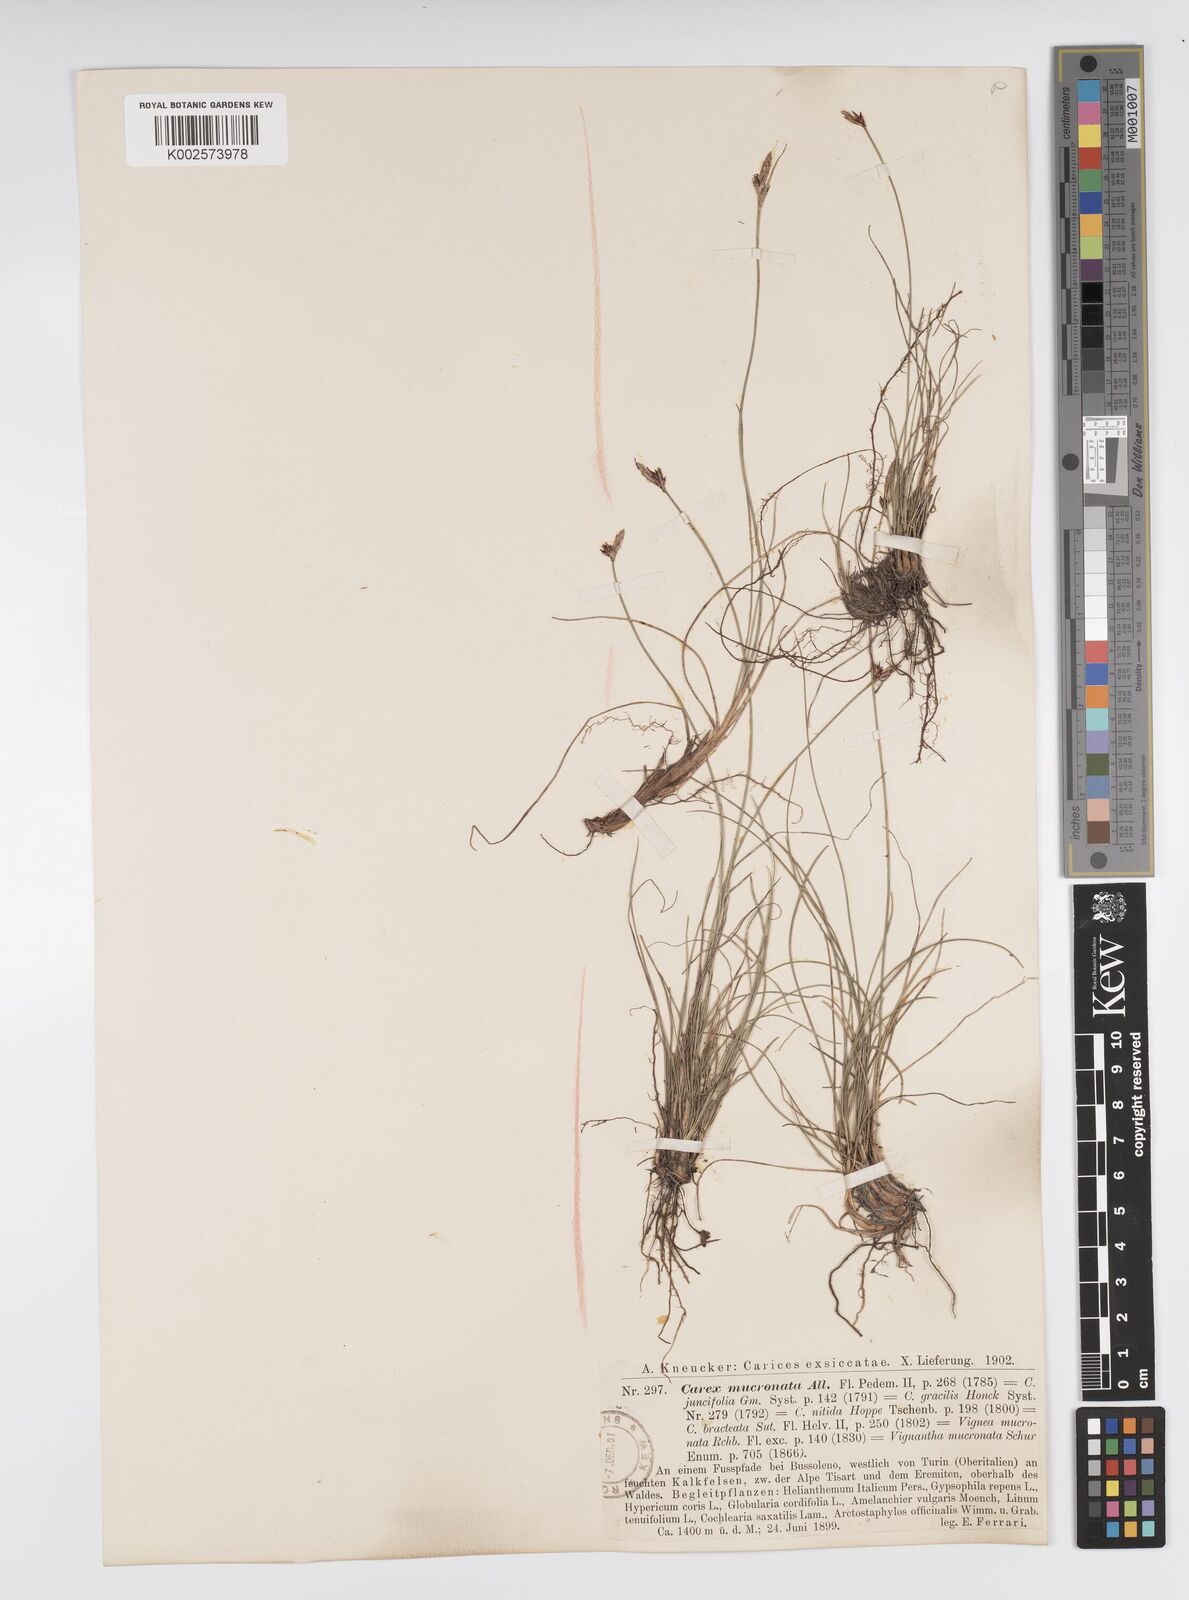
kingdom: Plantae
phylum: Tracheophyta
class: Liliopsida
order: Poales
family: Cyperaceae
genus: Carex
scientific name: Carex mucronata
